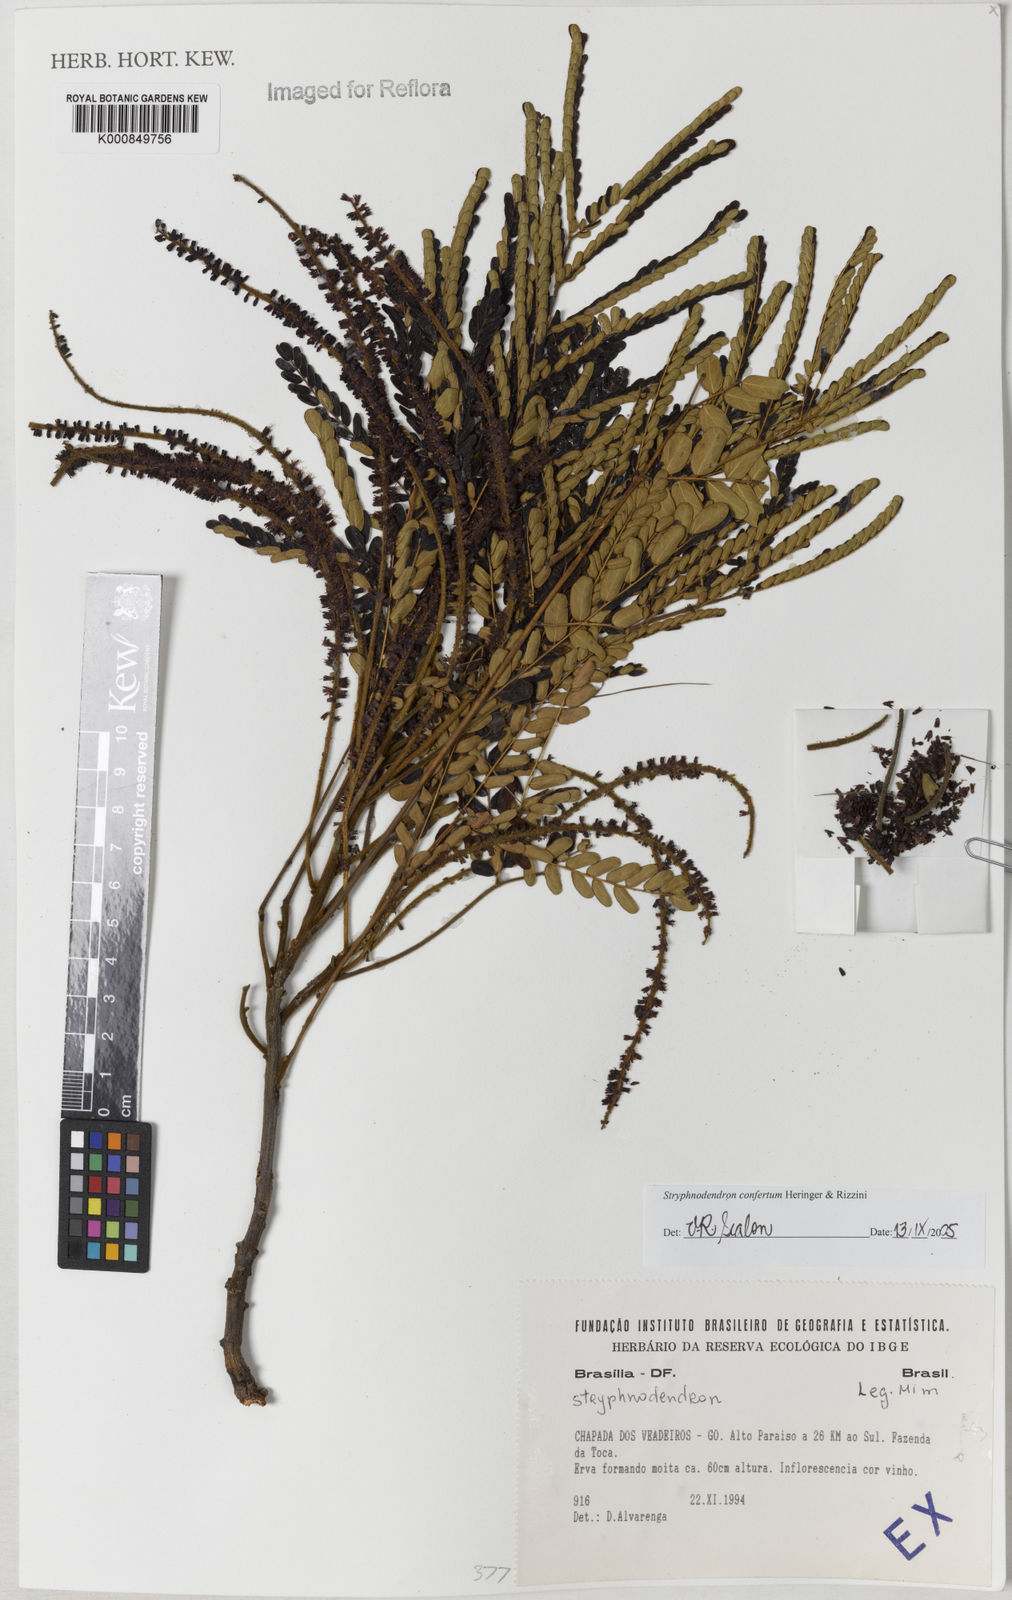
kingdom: Plantae
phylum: Tracheophyta
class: Magnoliopsida
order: Fabales
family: Fabaceae
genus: Stryphnodendron
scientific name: Stryphnodendron confertum
